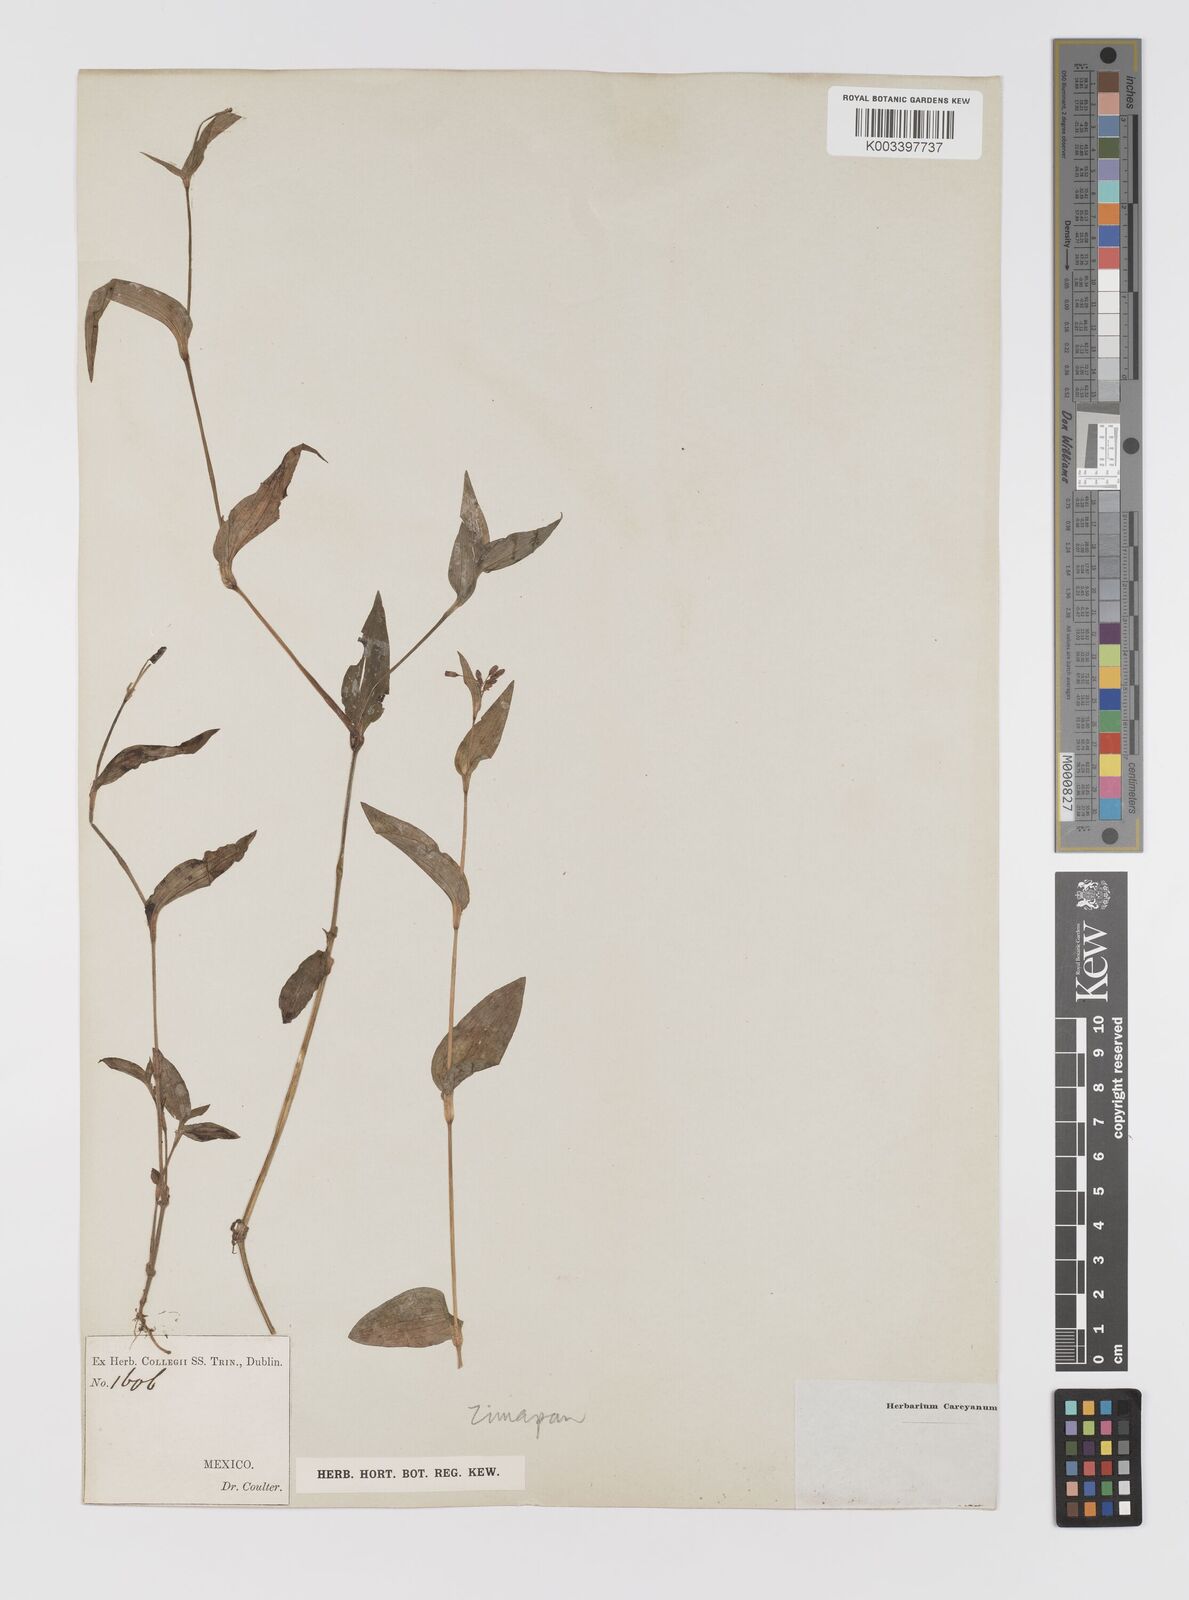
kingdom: Plantae
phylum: Tracheophyta
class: Liliopsida
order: Commelinales
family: Commelinaceae
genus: Gibasis
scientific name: Gibasis pulchella
